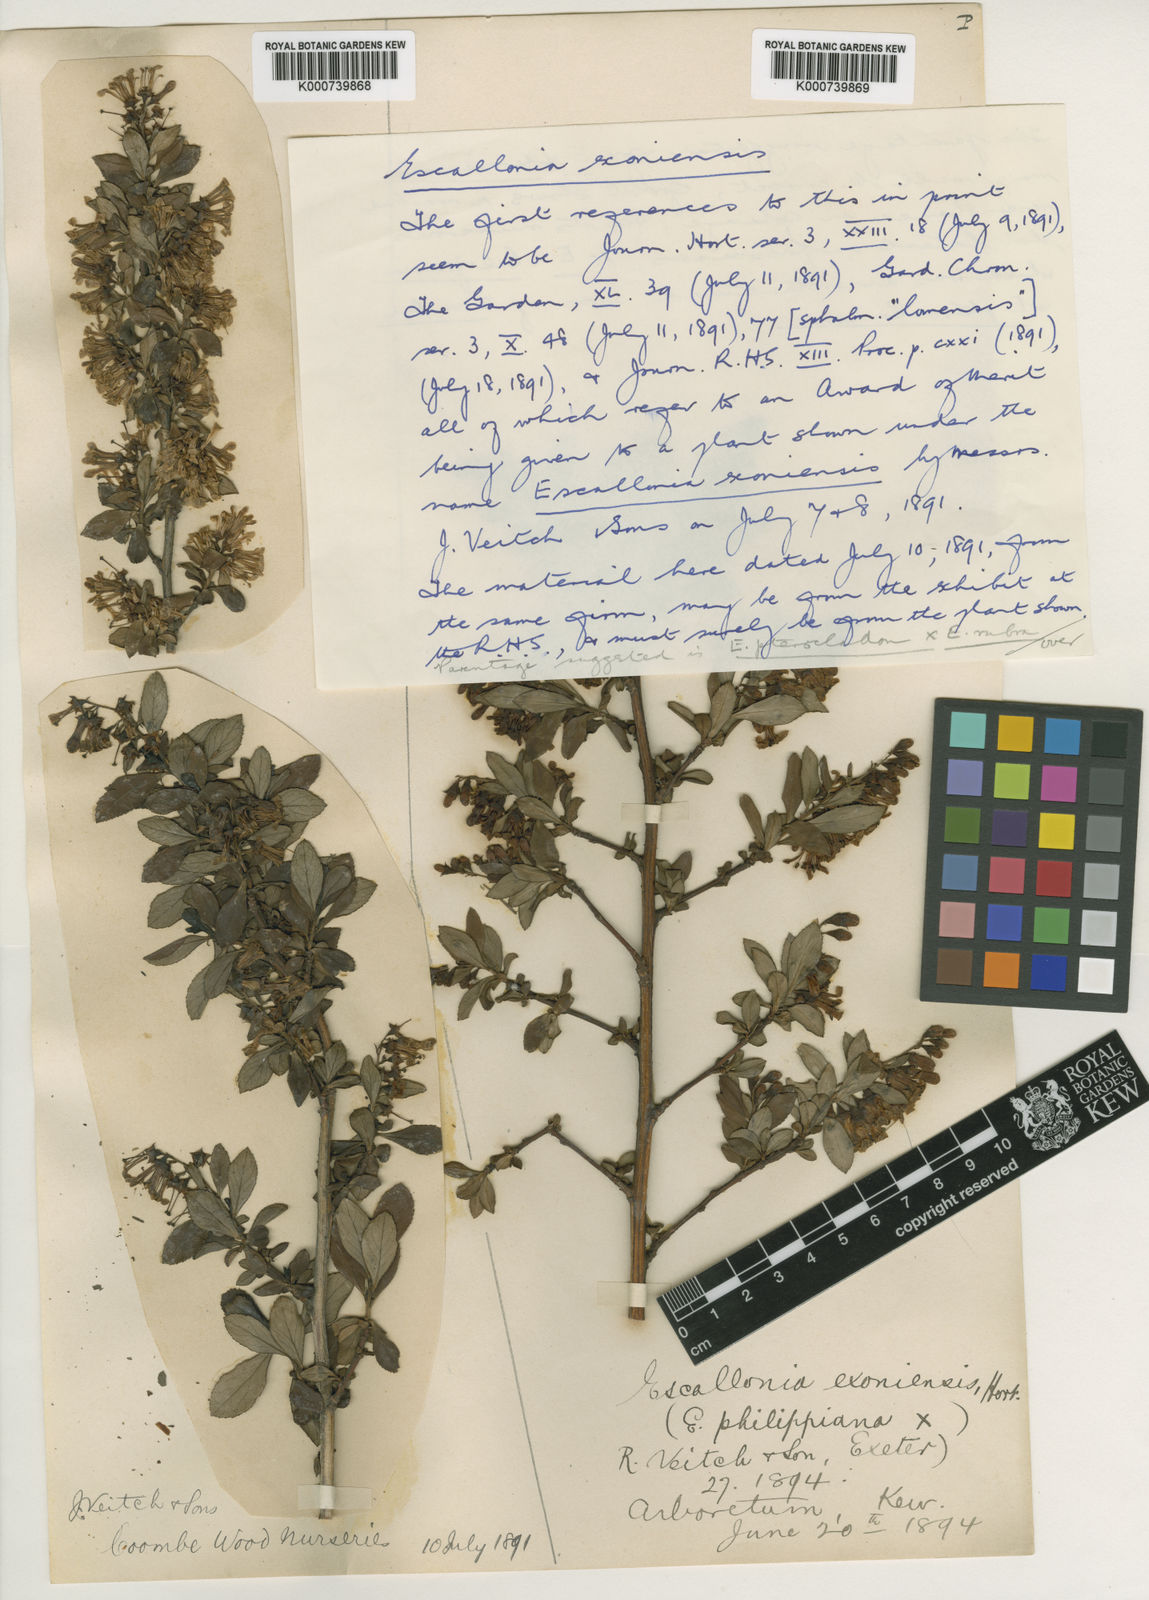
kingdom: Plantae
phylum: Tracheophyta
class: Magnoliopsida
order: Escalloniales
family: Escalloniaceae
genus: Escallonia
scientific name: Escallonia exoniensis
